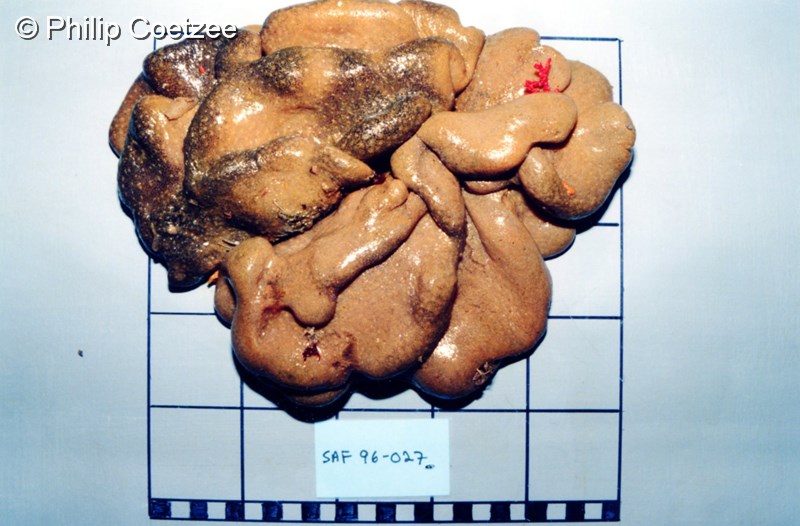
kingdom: Animalia
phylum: Chordata
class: Ascidiacea
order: Aplousobranchia
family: Polyclinidae
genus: Polyclinum
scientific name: Polyclinum isipingense
